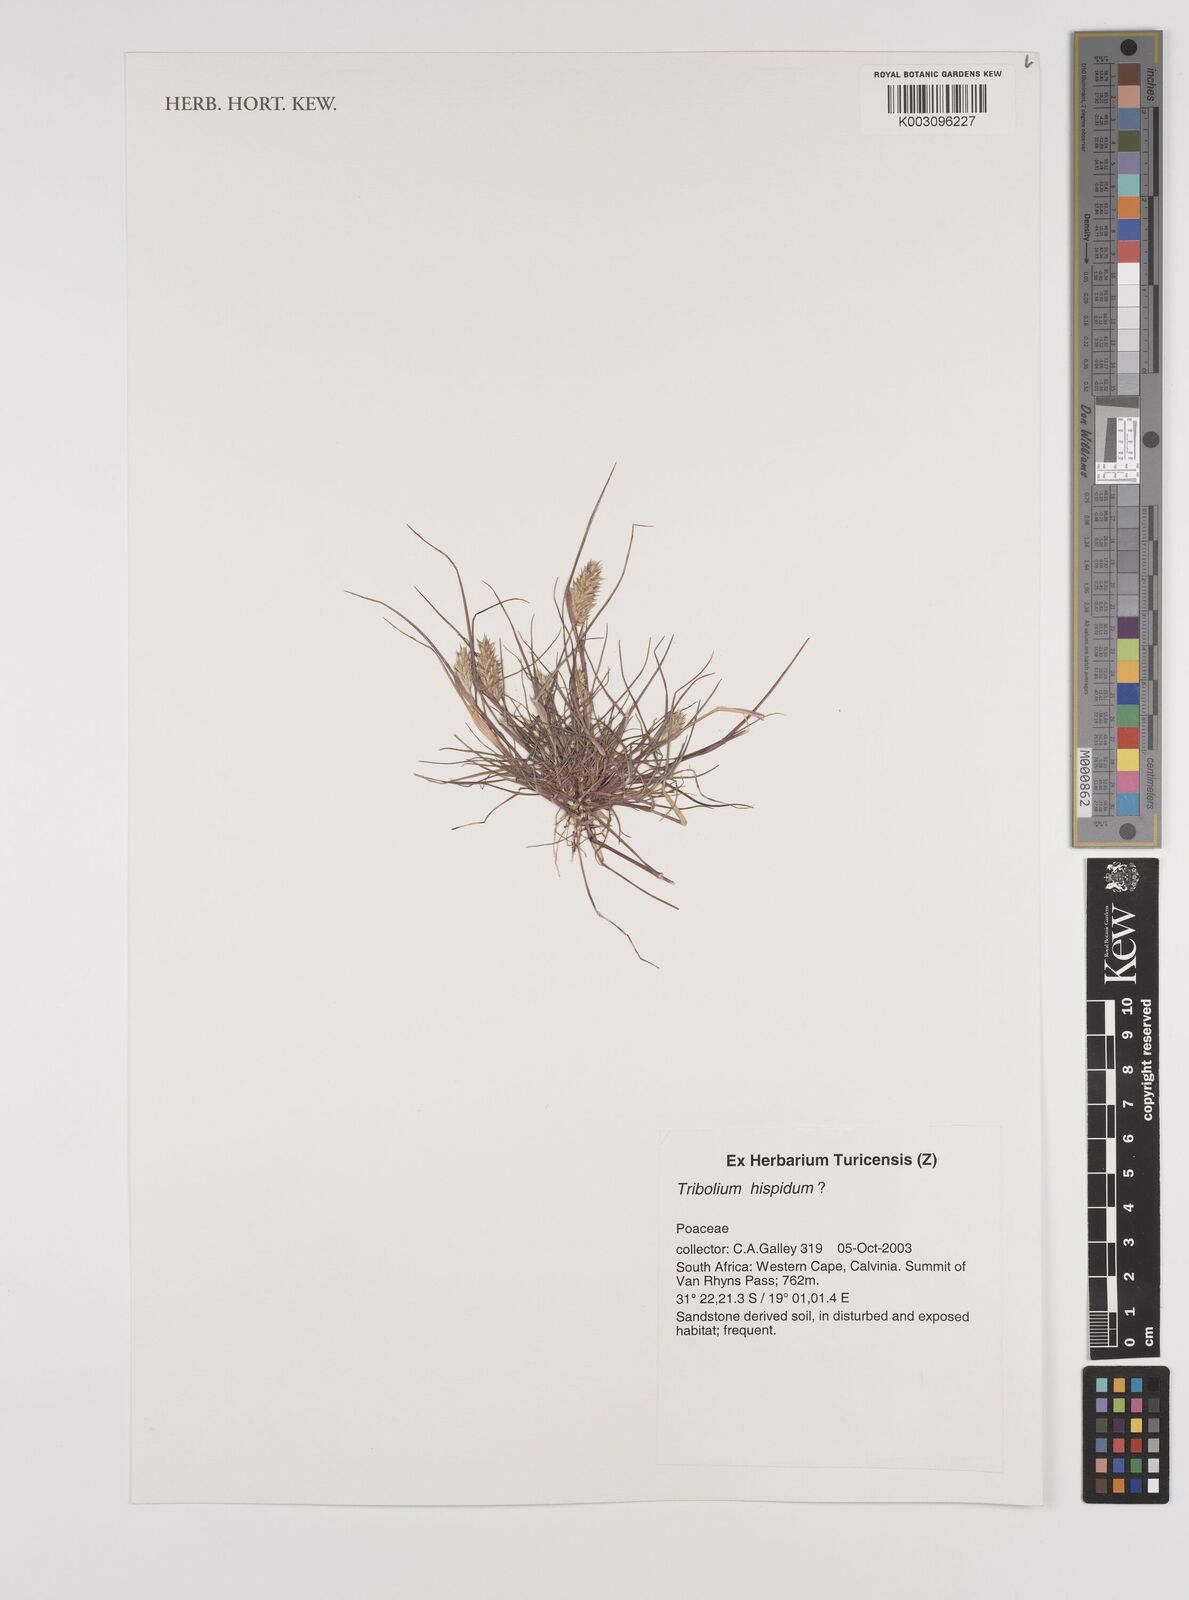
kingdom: Plantae
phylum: Tracheophyta
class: Liliopsida
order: Poales
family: Poaceae
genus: Tribolium
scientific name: Tribolium hispidum
